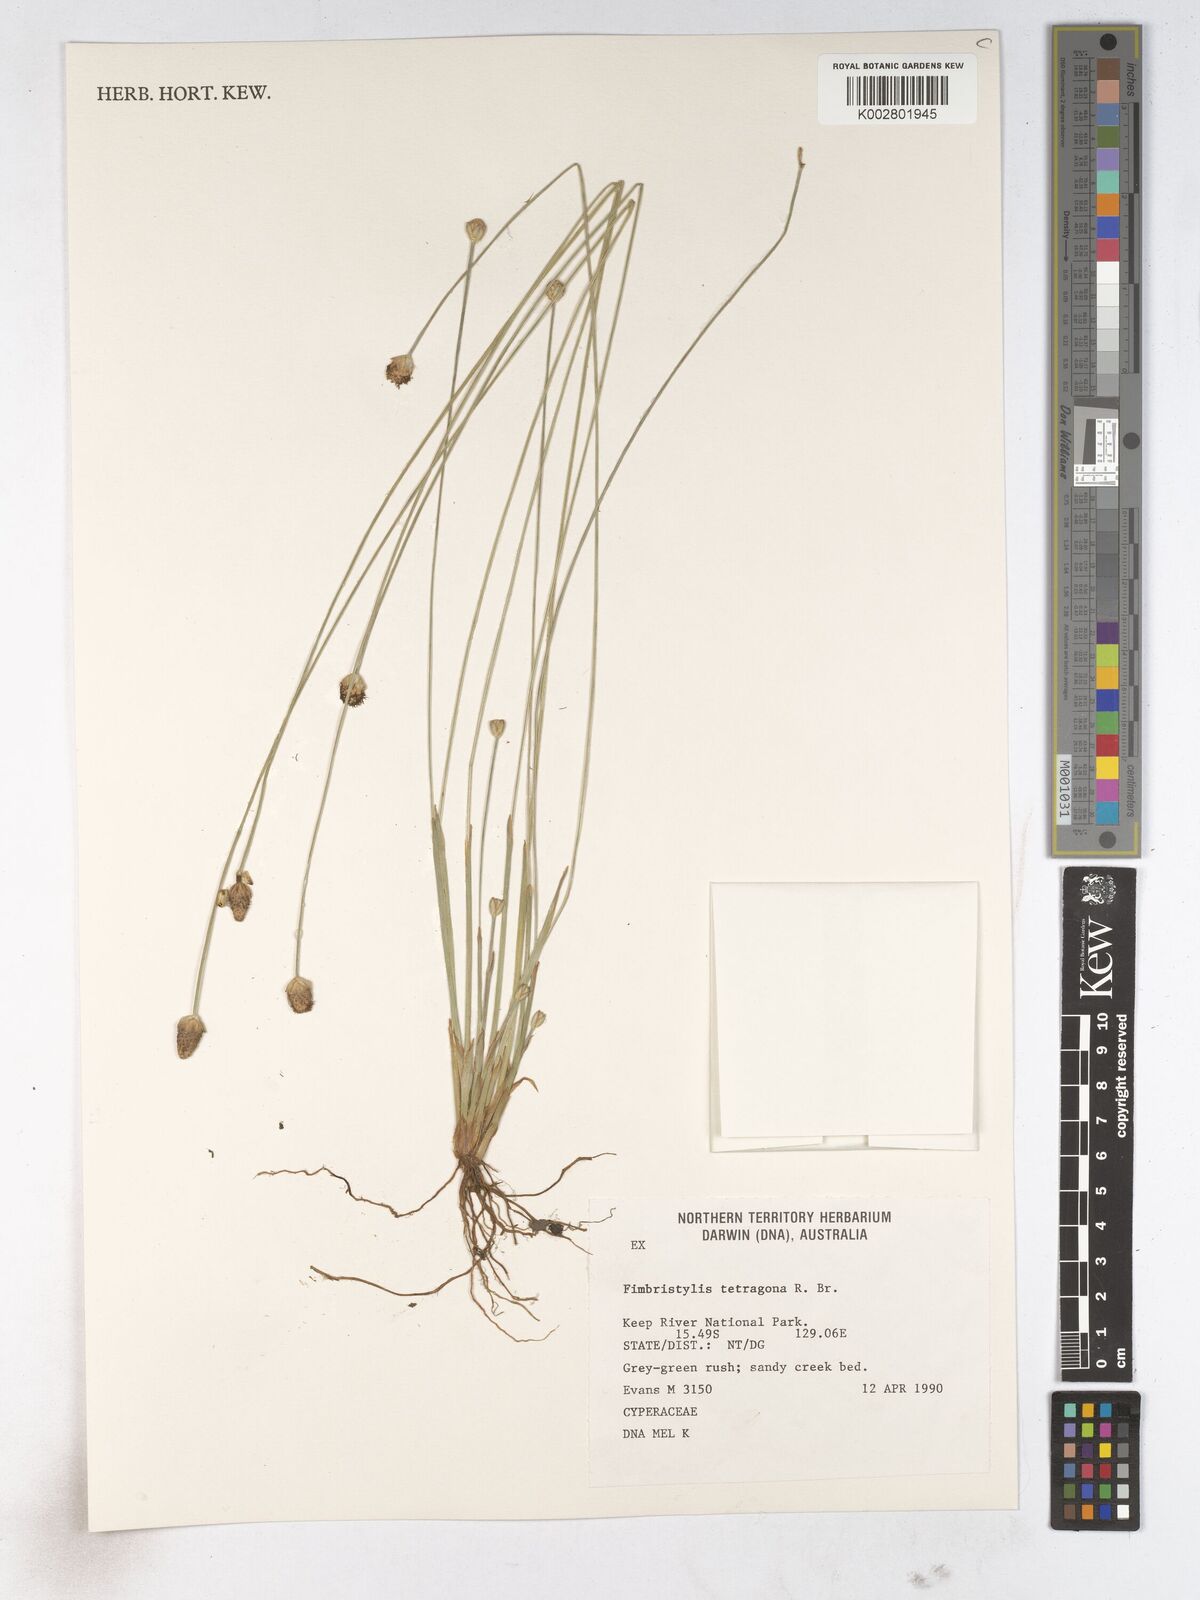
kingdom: Plantae
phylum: Tracheophyta
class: Liliopsida
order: Poales
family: Cyperaceae
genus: Fimbristylis
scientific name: Fimbristylis tetragona
